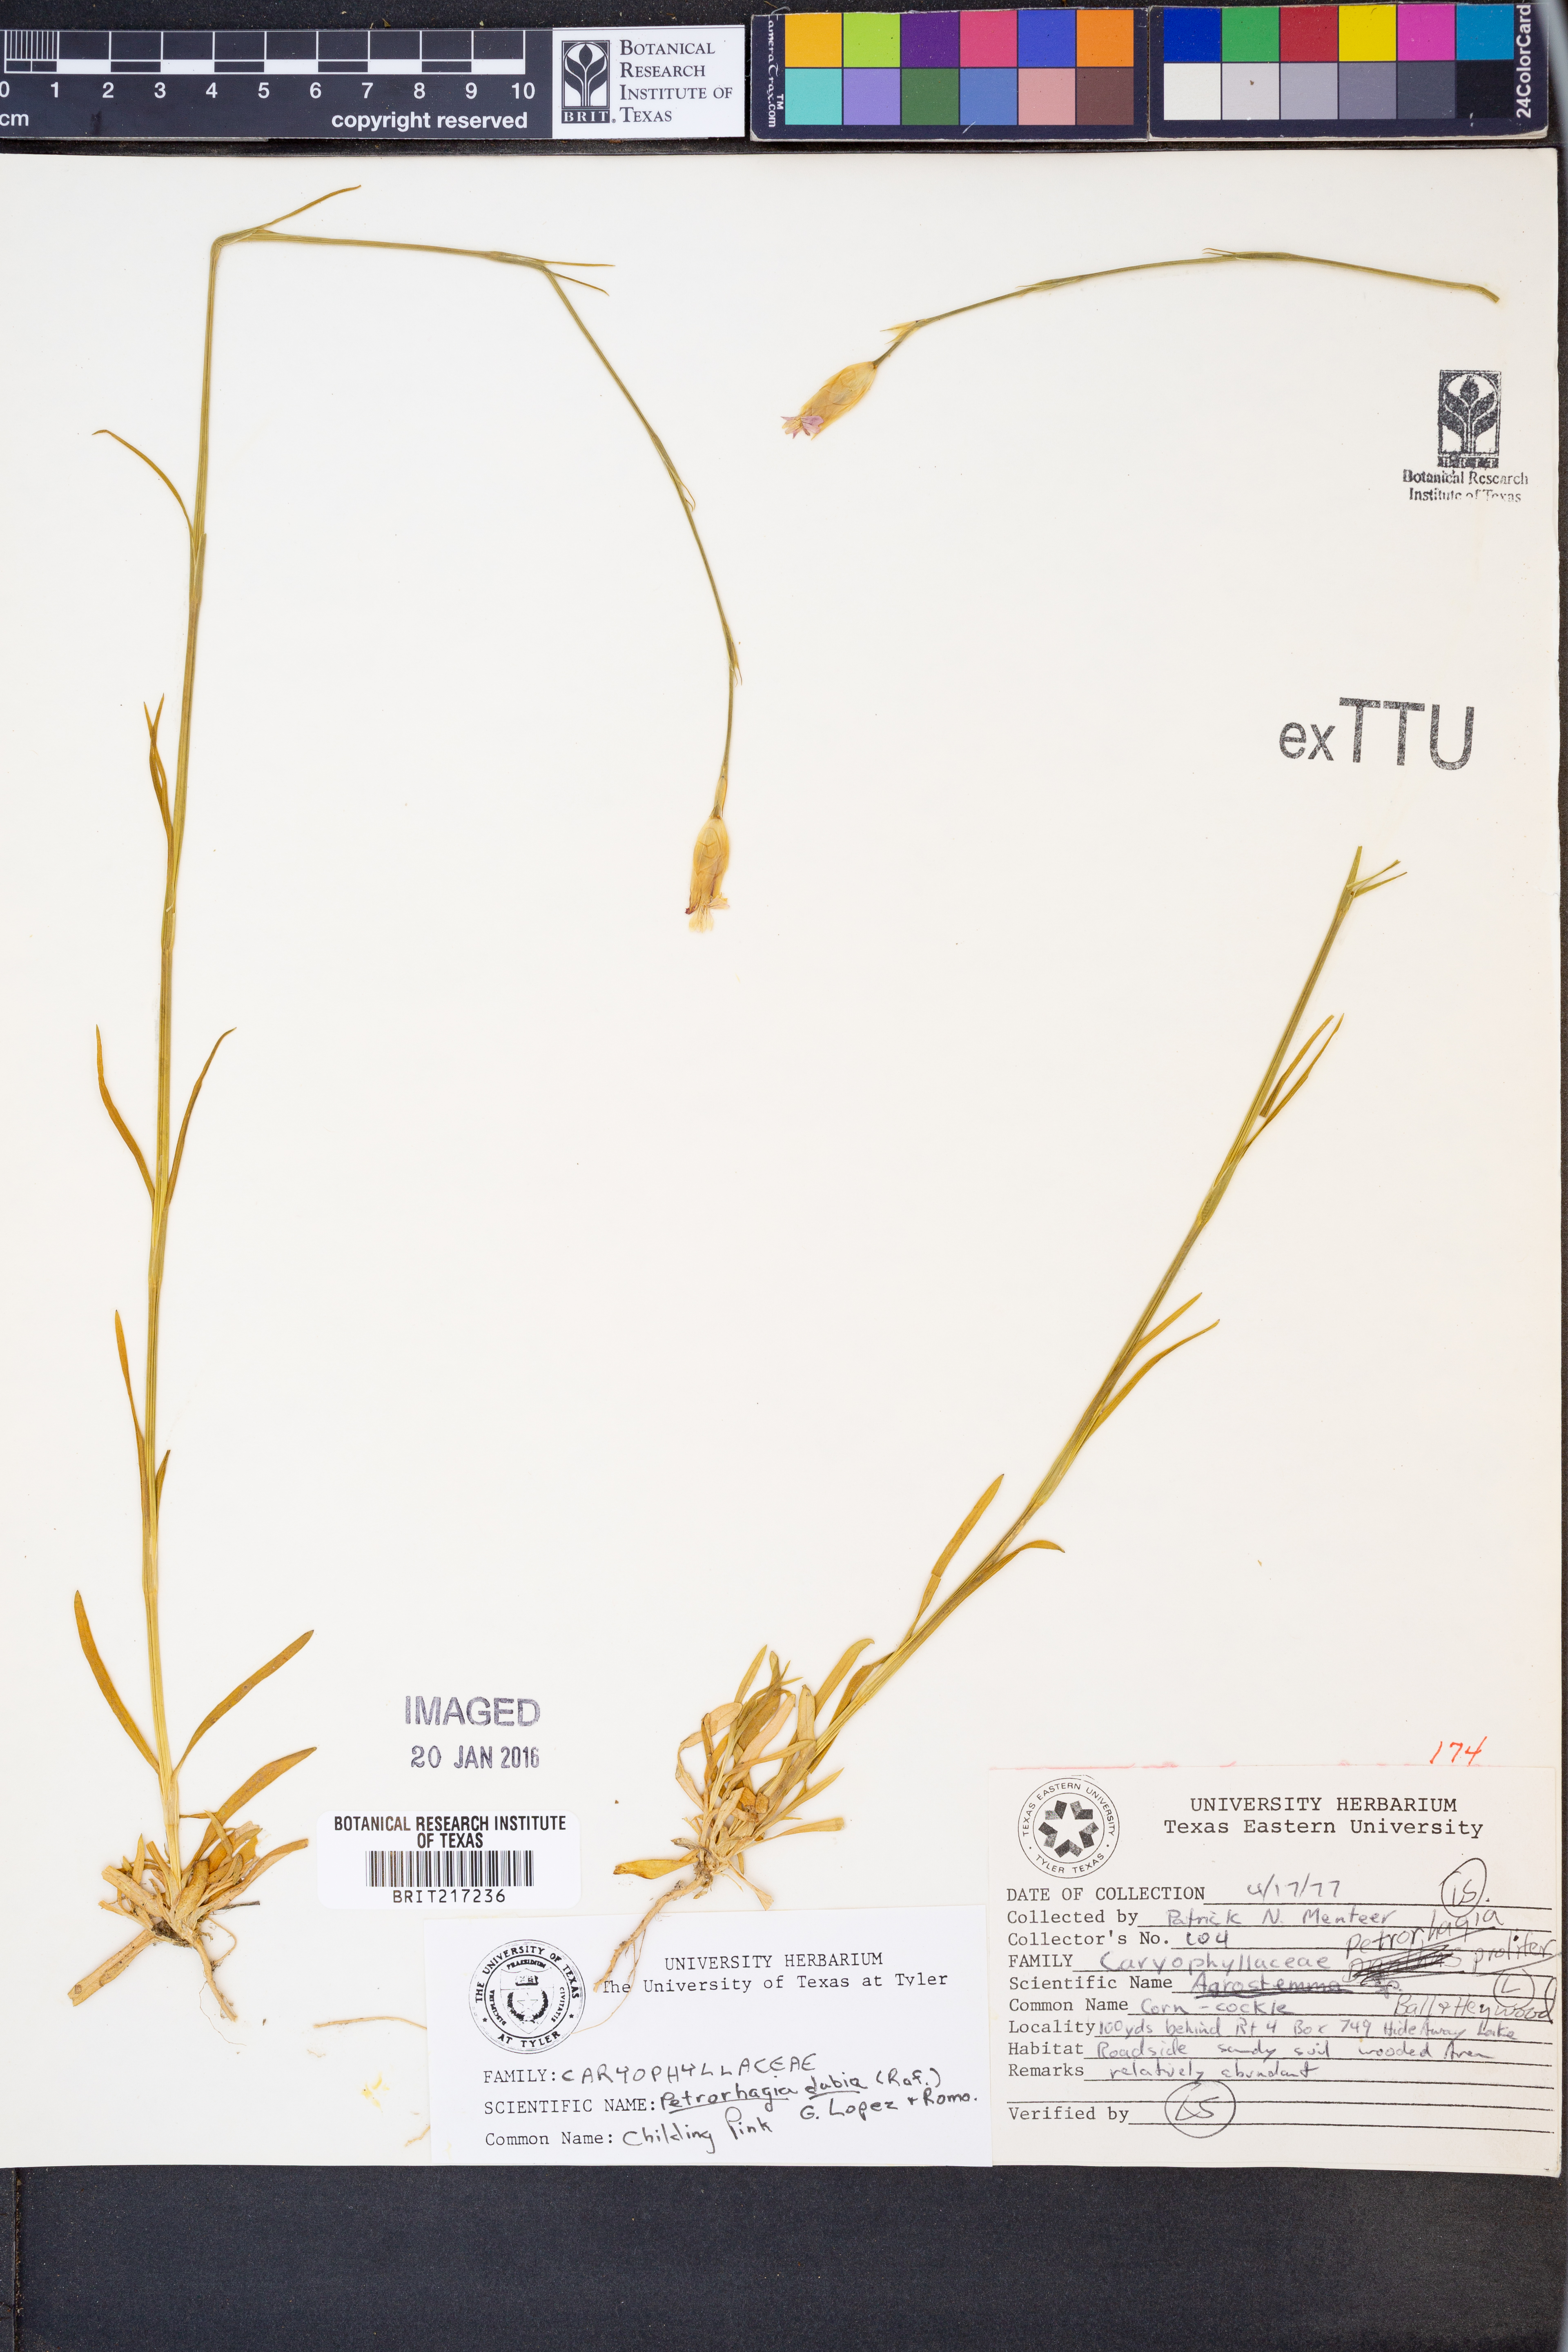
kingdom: Plantae
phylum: Tracheophyta
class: Magnoliopsida
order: Caryophyllales
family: Caryophyllaceae
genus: Petrorhagia
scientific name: Petrorhagia dubia
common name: Hairypink
